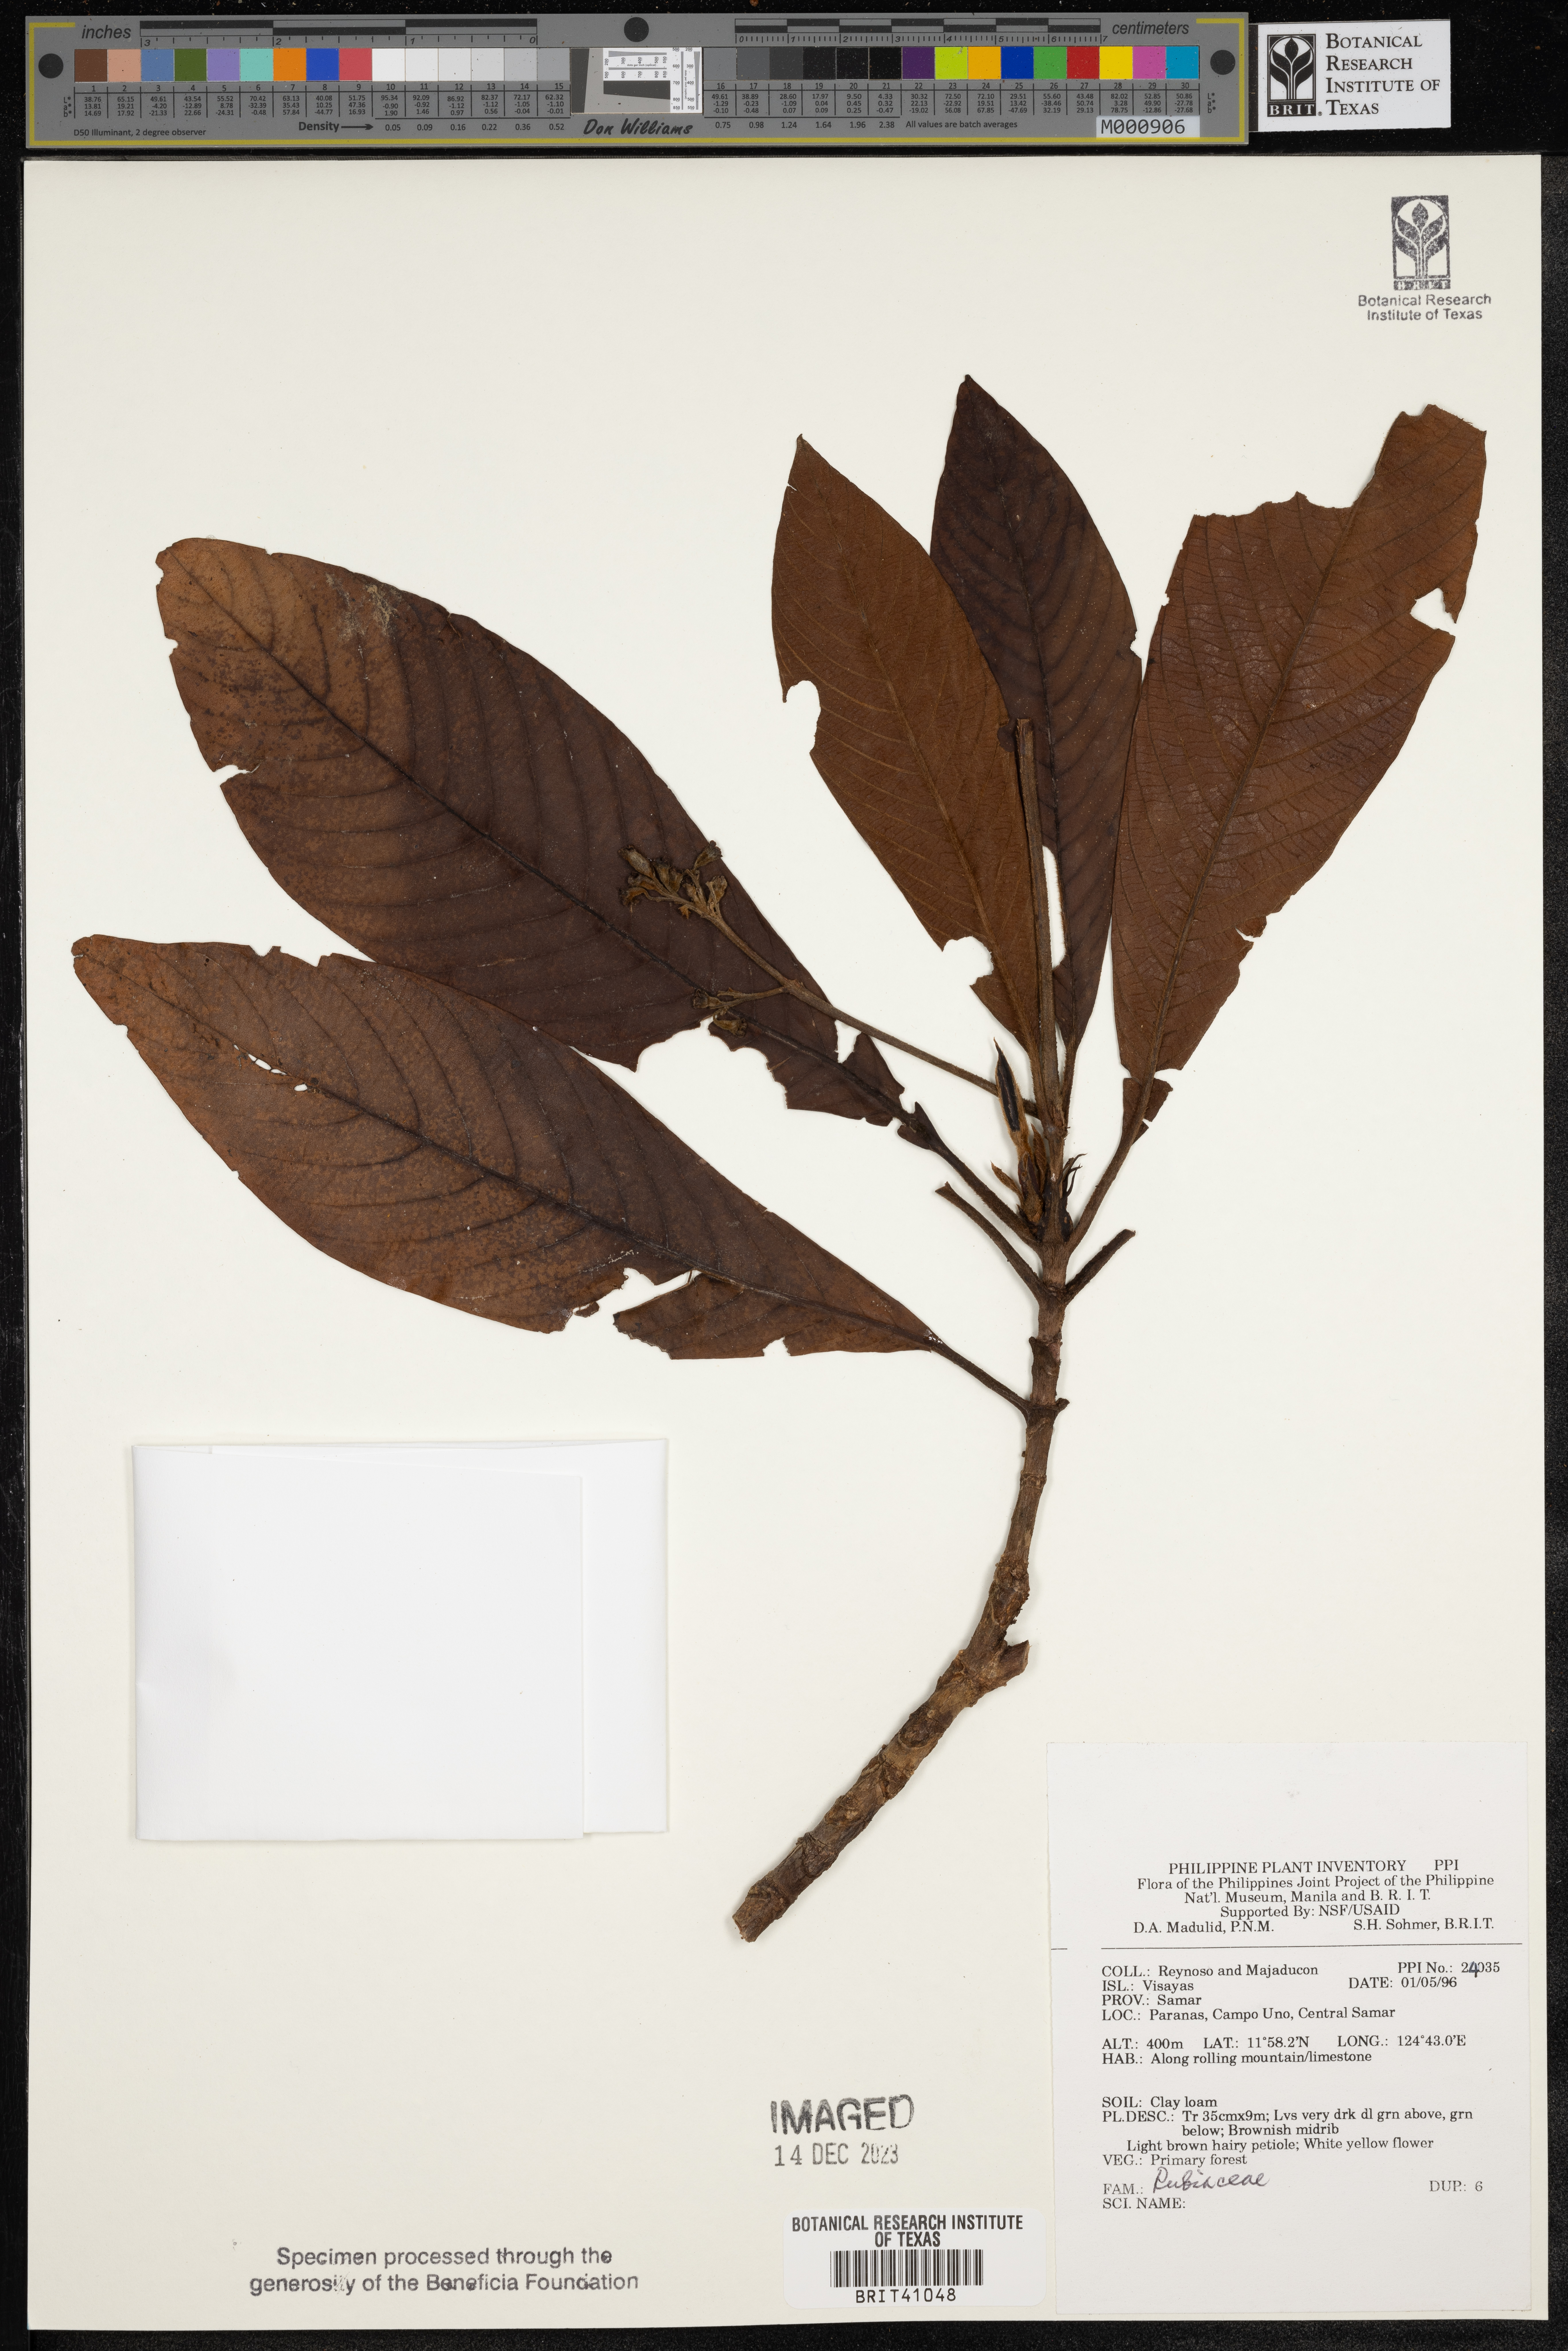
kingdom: Plantae
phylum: Tracheophyta
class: Magnoliopsida
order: Gentianales
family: Rubiaceae
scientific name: Rubiaceae
